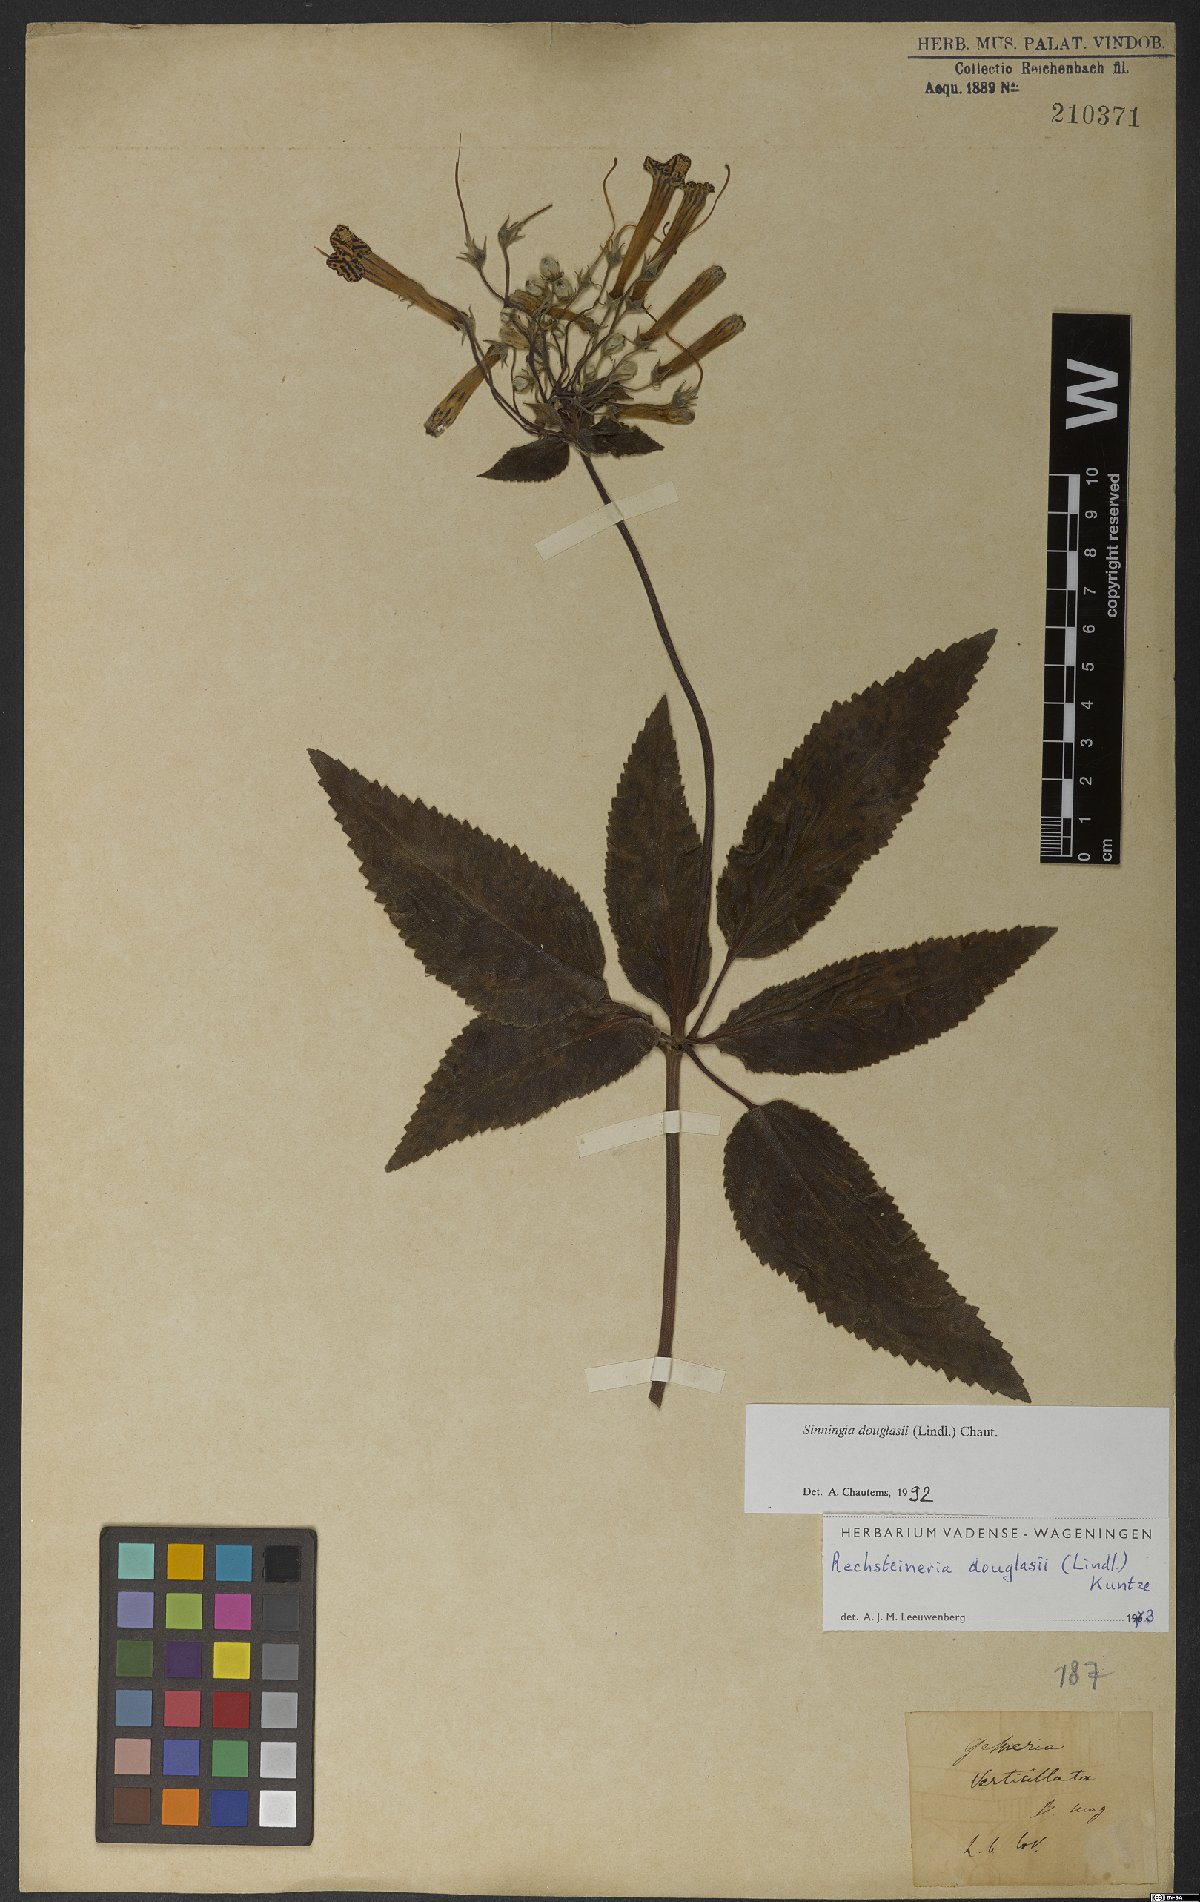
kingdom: Plantae
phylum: Tracheophyta
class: Magnoliopsida
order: Lamiales
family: Gesneriaceae
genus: Sinningia
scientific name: Sinningia douglasii
